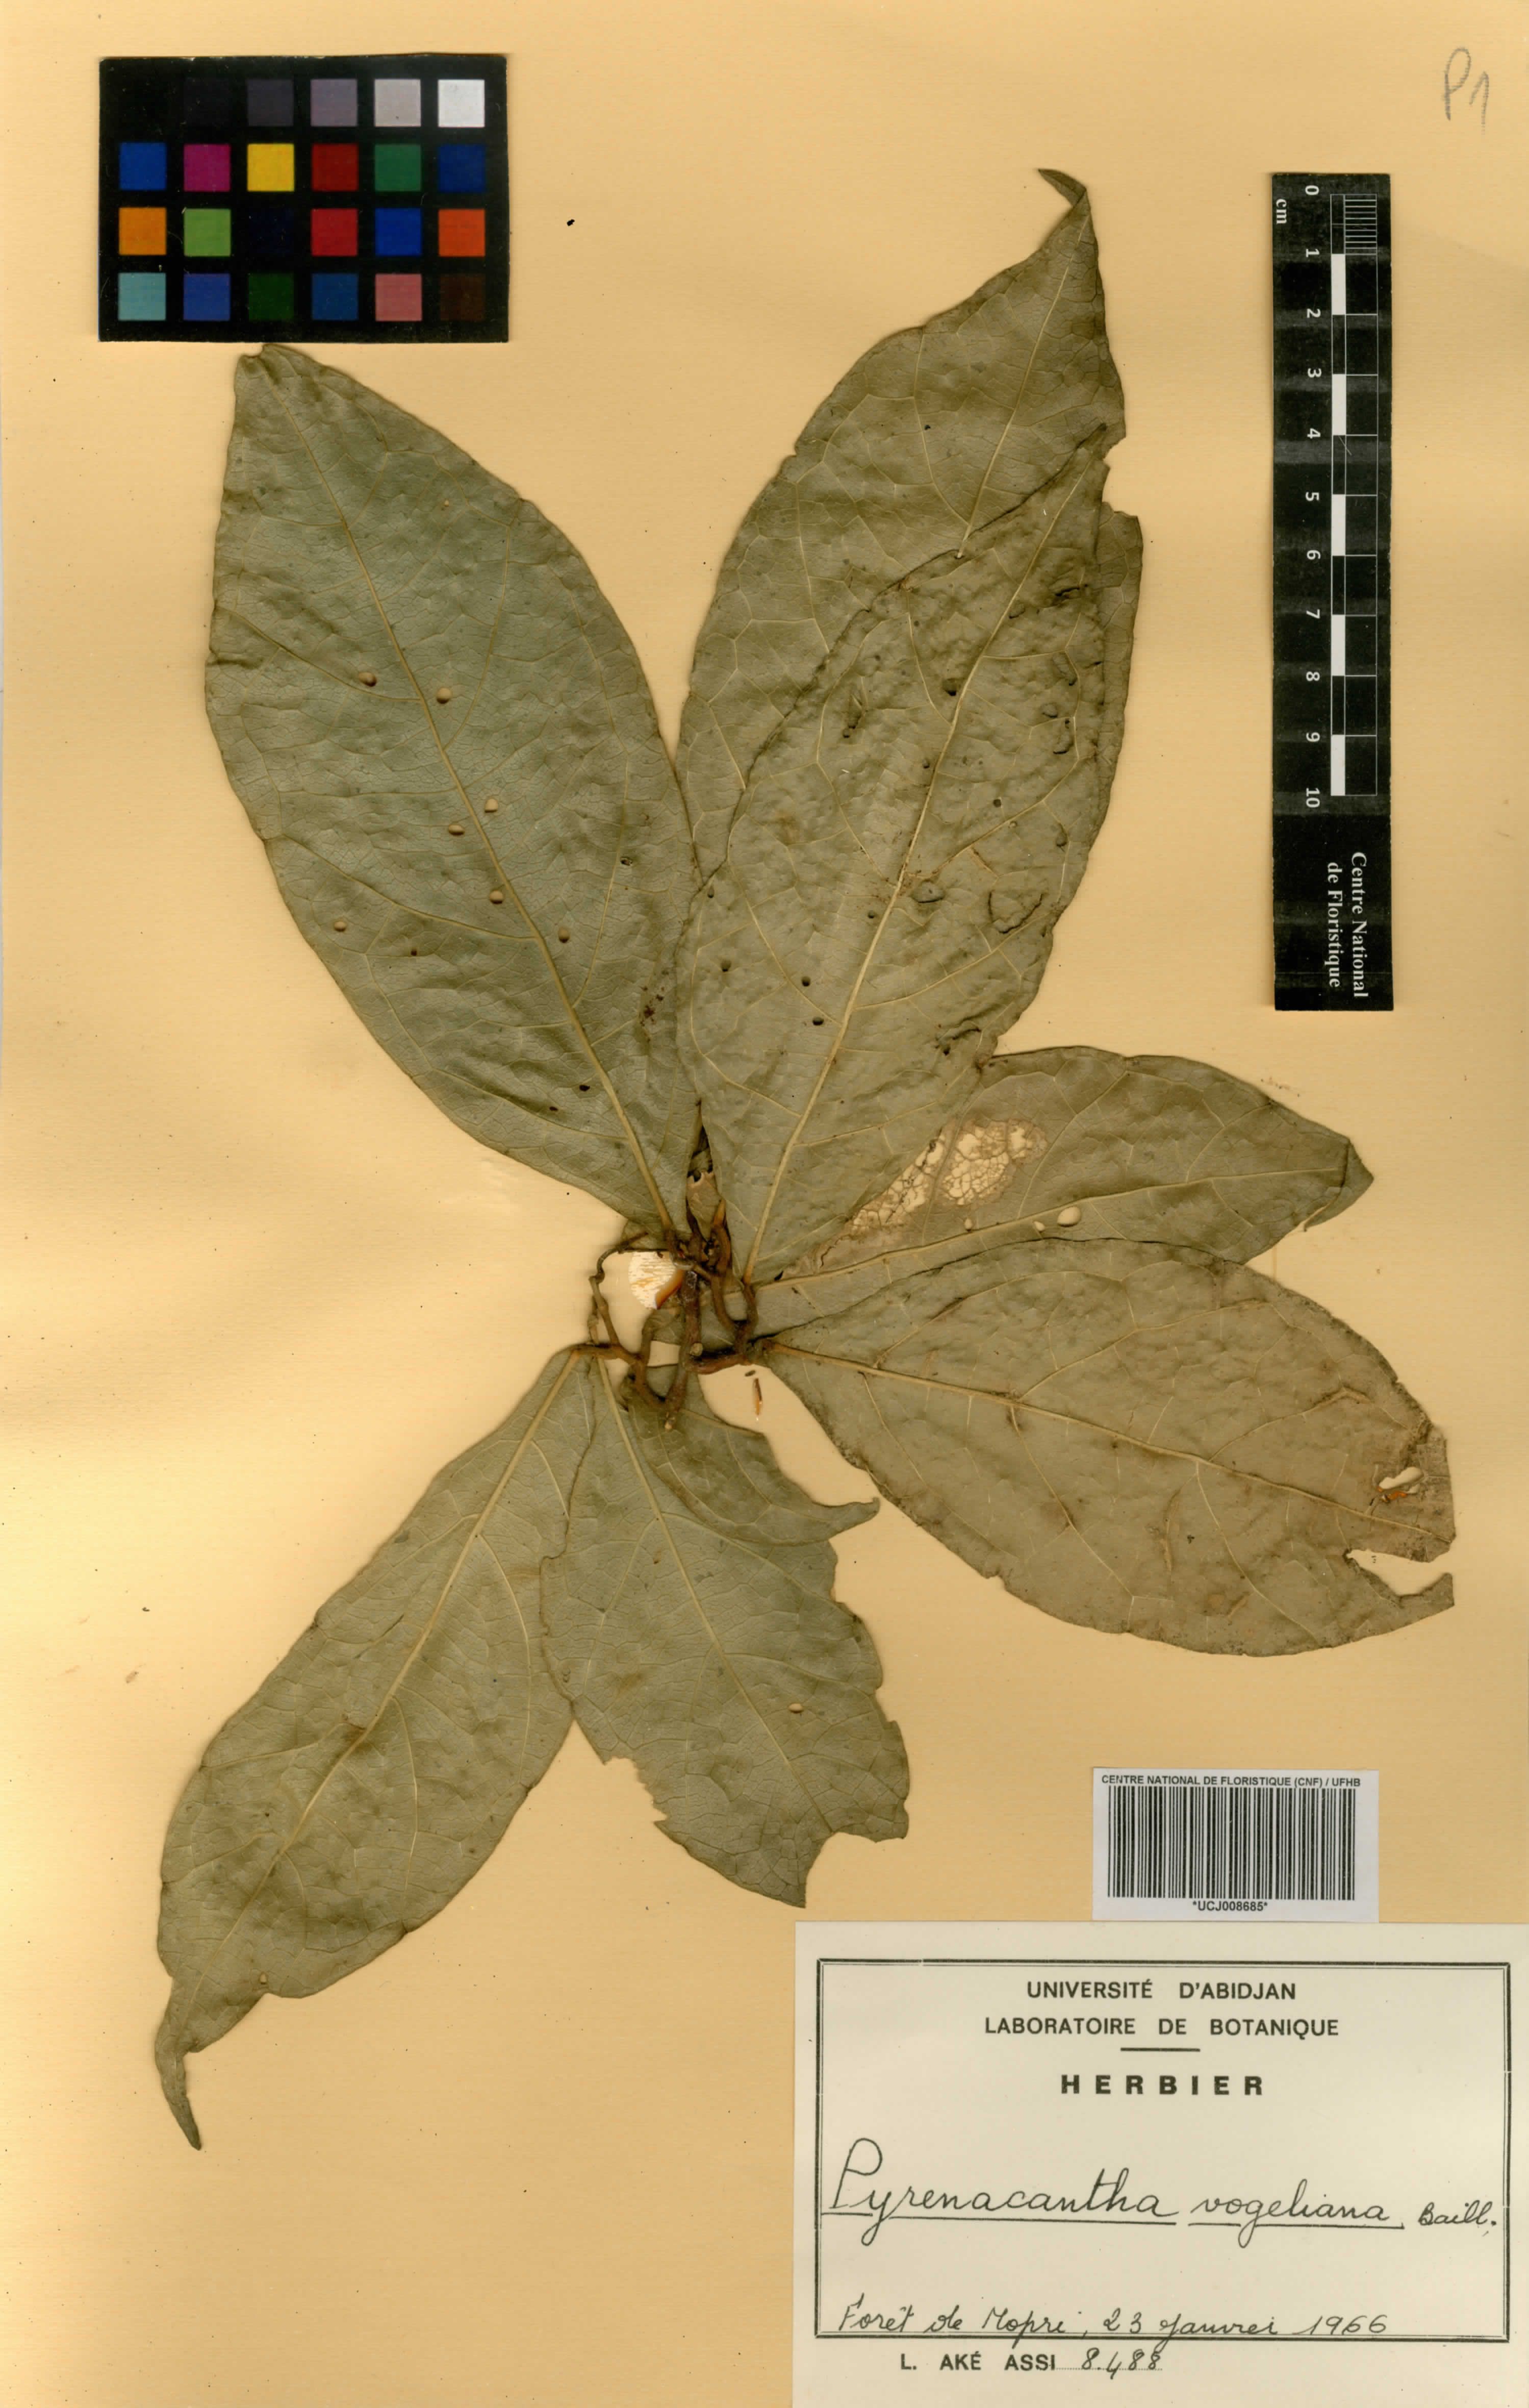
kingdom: Plantae
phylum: Tracheophyta
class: Magnoliopsida
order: Icacinales
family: Icacinaceae
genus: Pyrenacantha
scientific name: Pyrenacantha vogeliana
